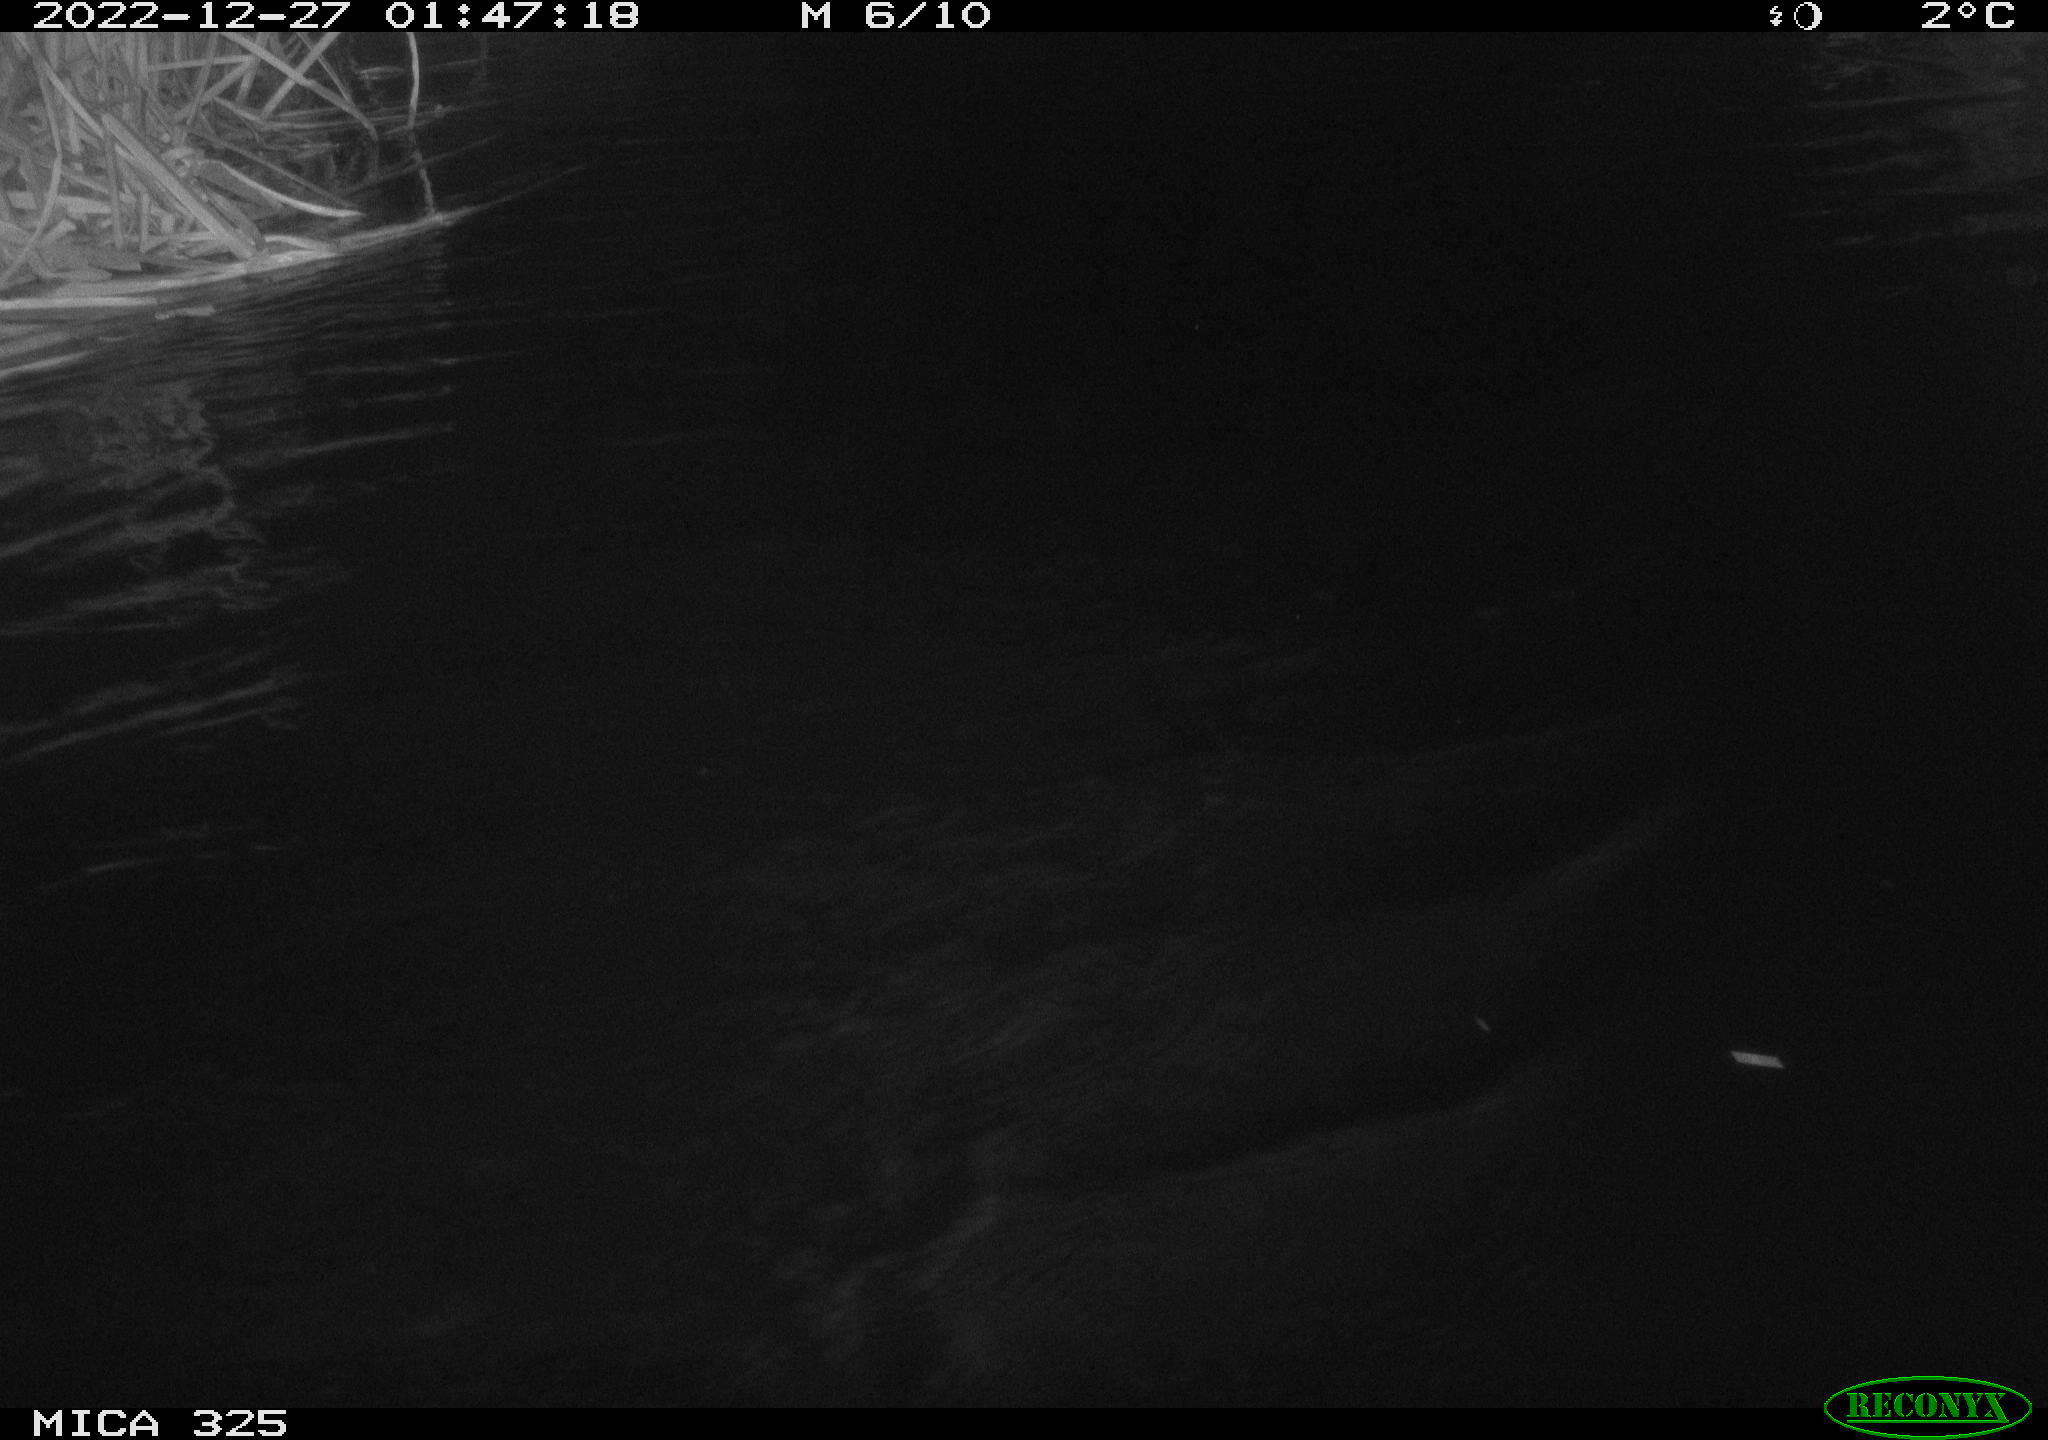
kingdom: Animalia
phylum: Chordata
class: Mammalia
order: Rodentia
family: Cricetidae
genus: Ondatra
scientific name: Ondatra zibethicus
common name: Muskrat
